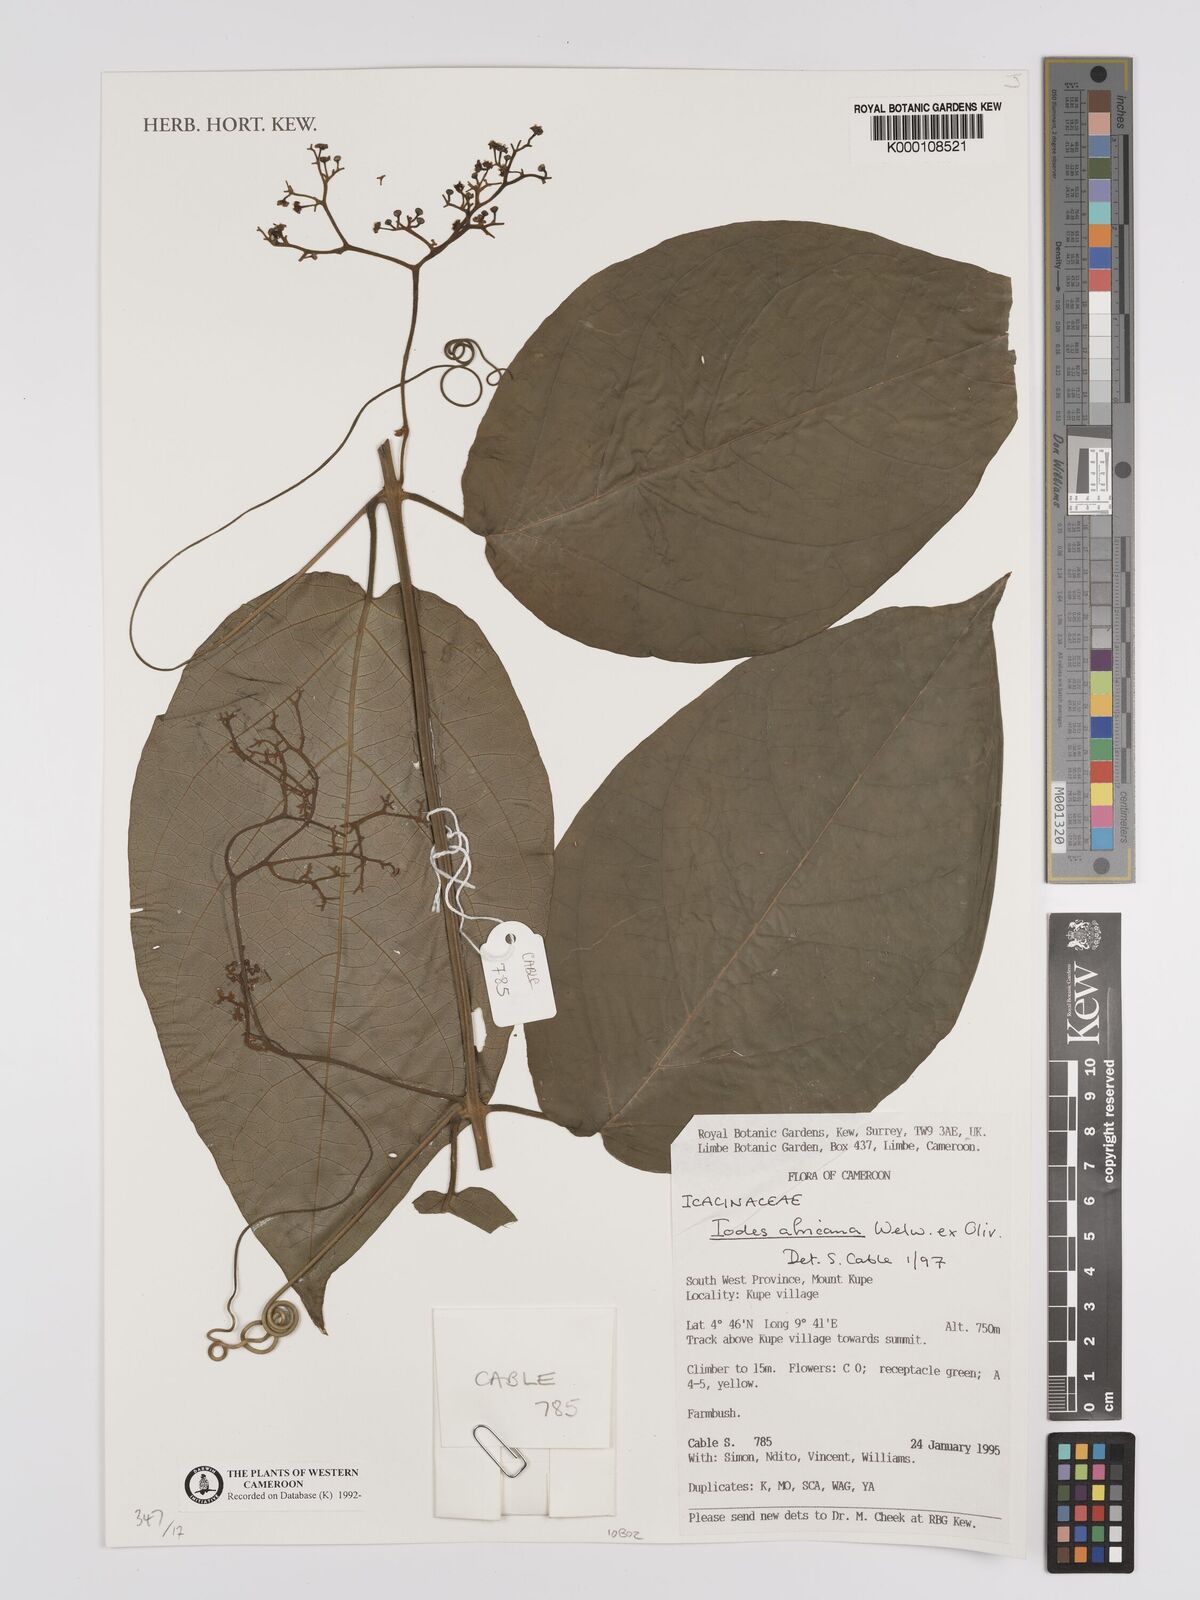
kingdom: Plantae
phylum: Tracheophyta
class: Magnoliopsida
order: Icacinales
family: Icacinaceae
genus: Iodes
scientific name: Iodes africana
